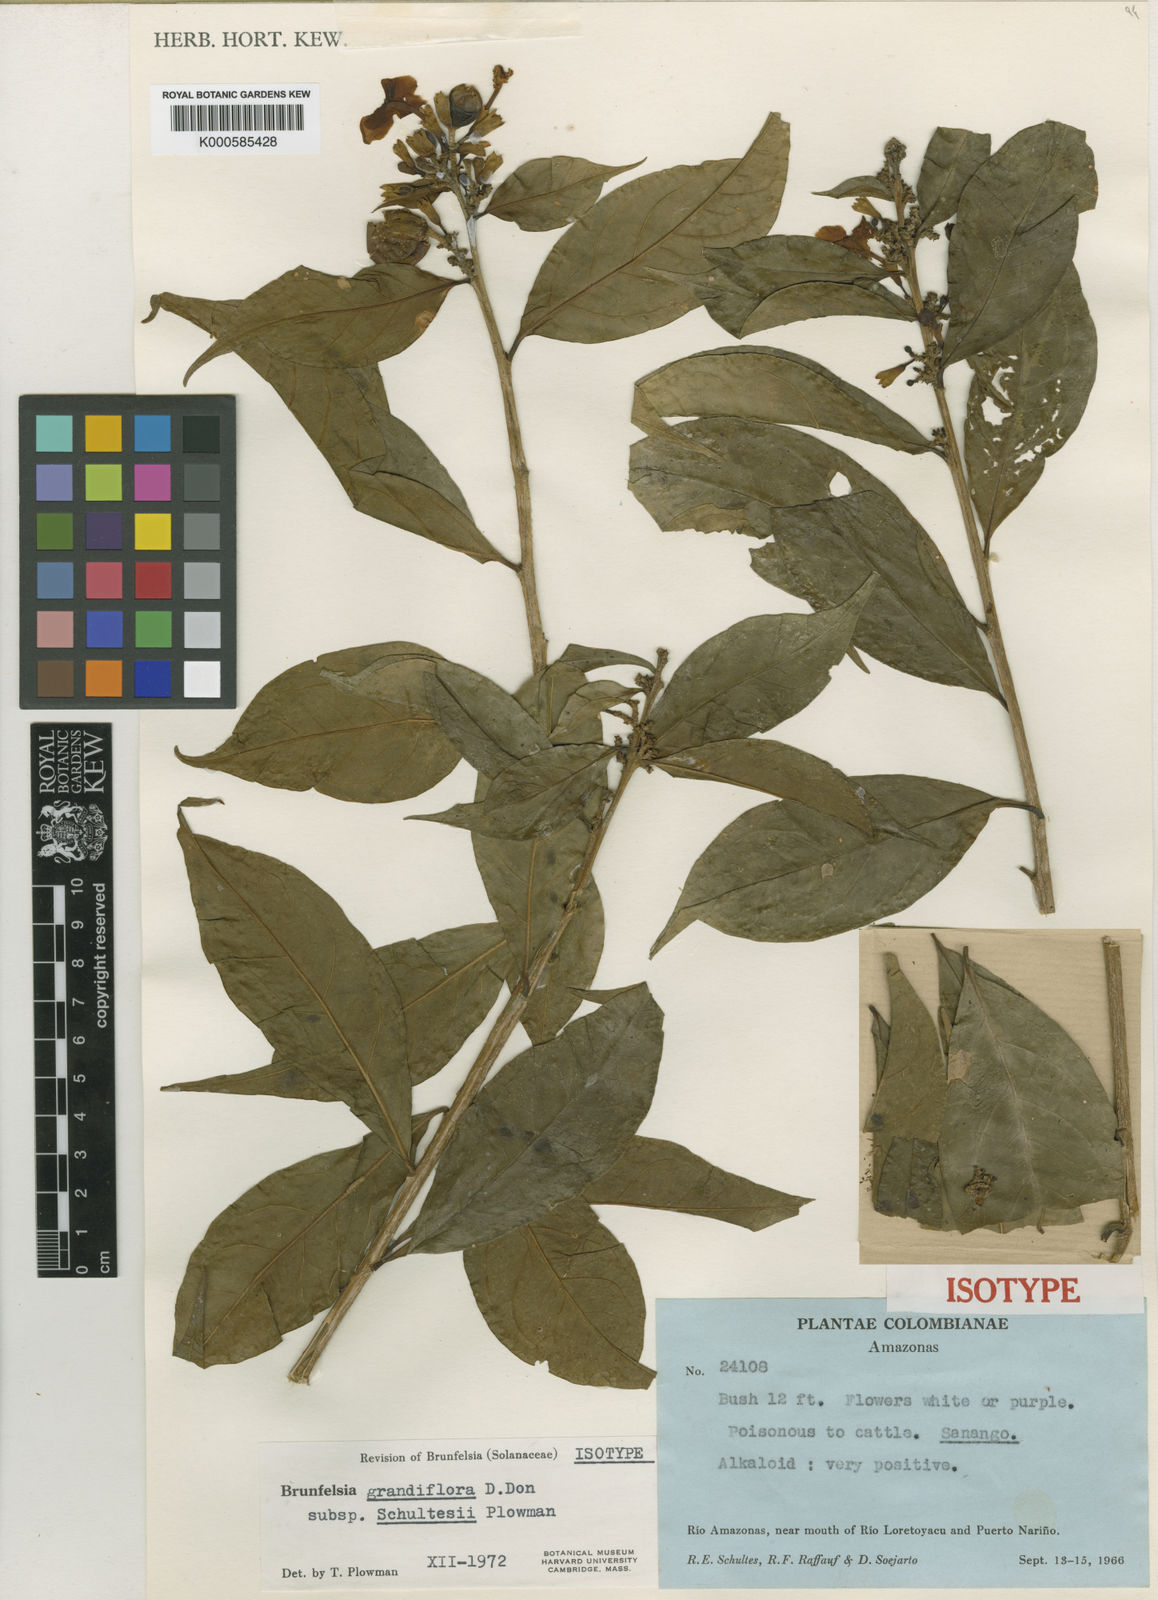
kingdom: Plantae
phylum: Tracheophyta
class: Magnoliopsida
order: Solanales
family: Solanaceae
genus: Brunfelsia
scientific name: Brunfelsia grandiflora
